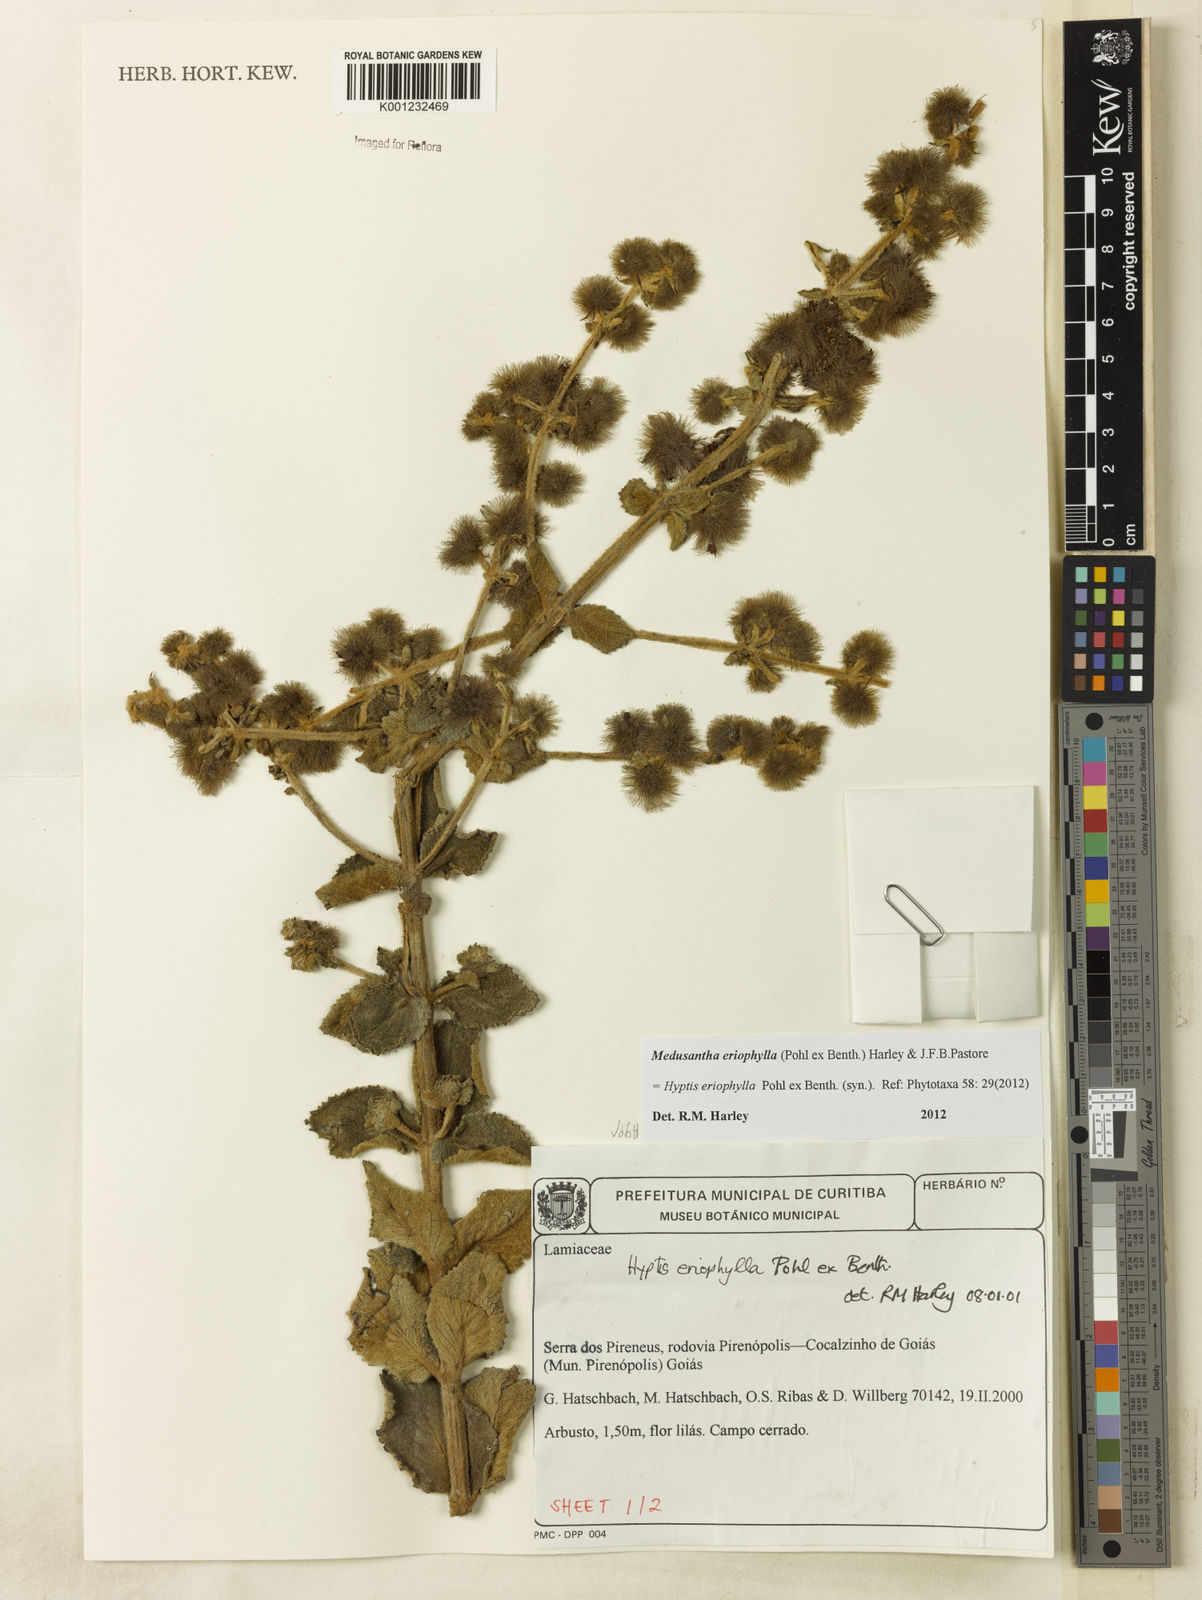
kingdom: Plantae
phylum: Tracheophyta
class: Magnoliopsida
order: Lamiales
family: Lamiaceae
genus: Medusantha
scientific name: Medusantha eriophylla
